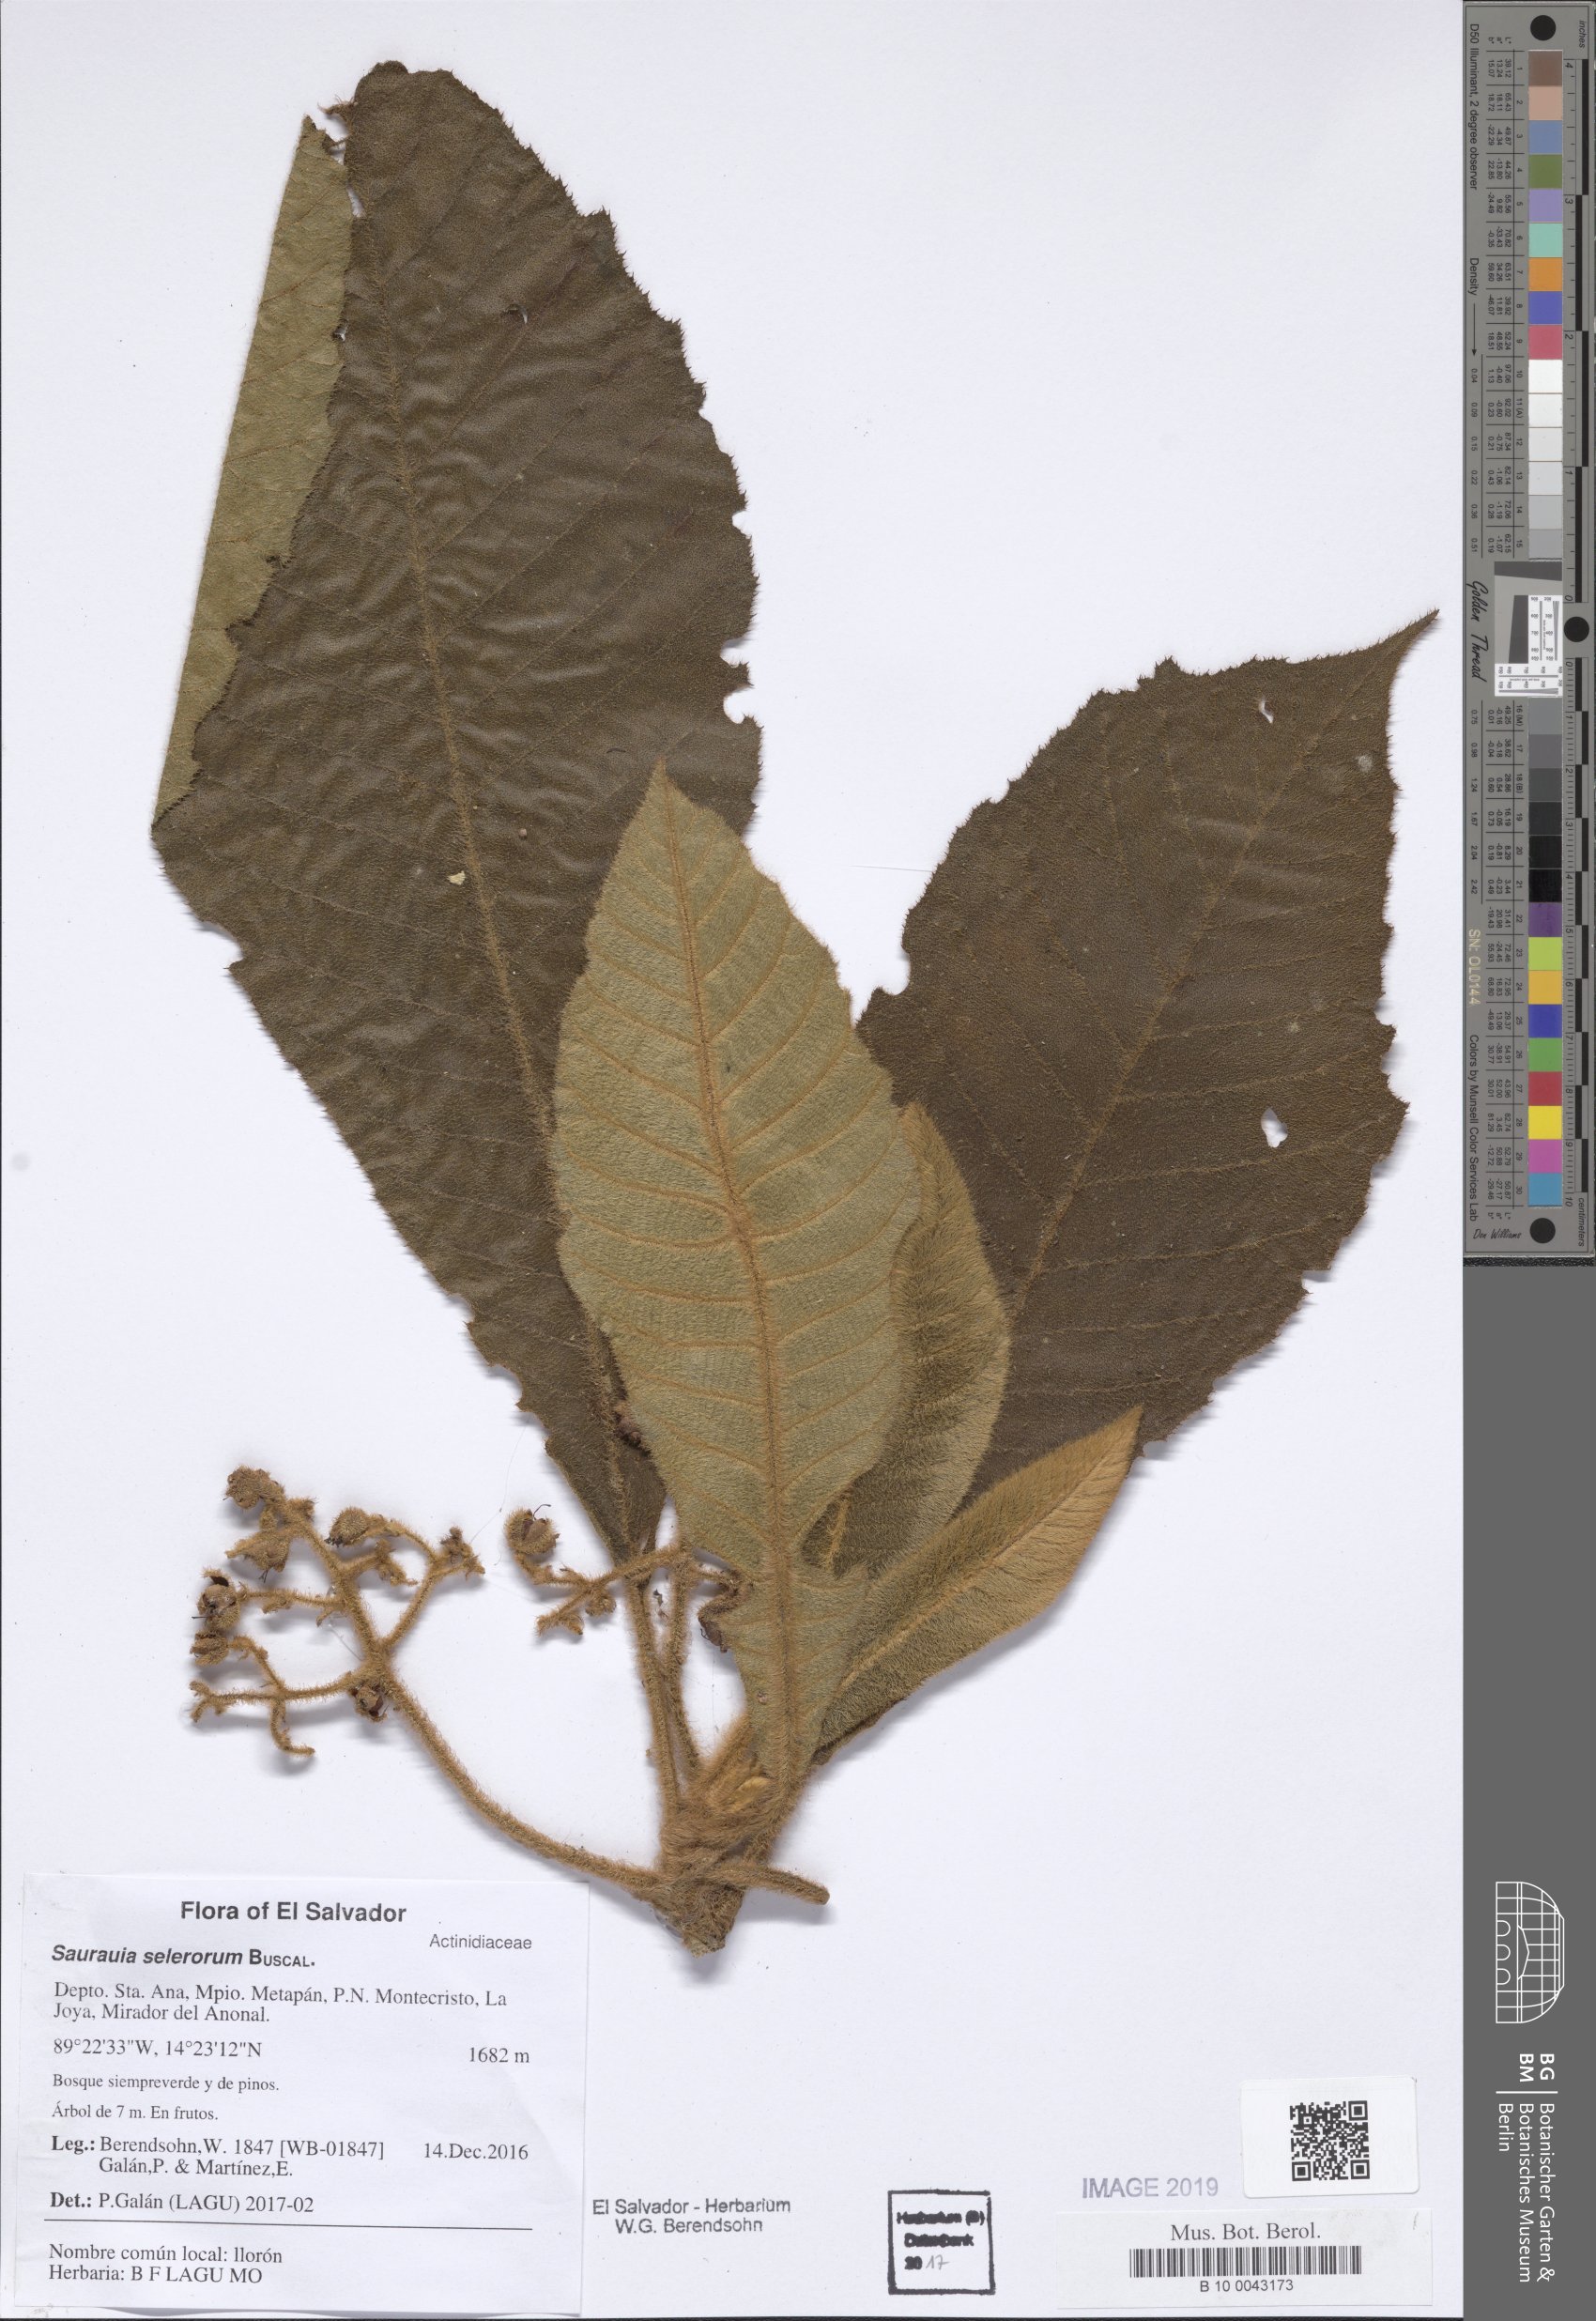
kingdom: Plantae
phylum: Tracheophyta
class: Magnoliopsida
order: Ericales
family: Actinidiaceae
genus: Saurauia
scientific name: Saurauia selerorum
